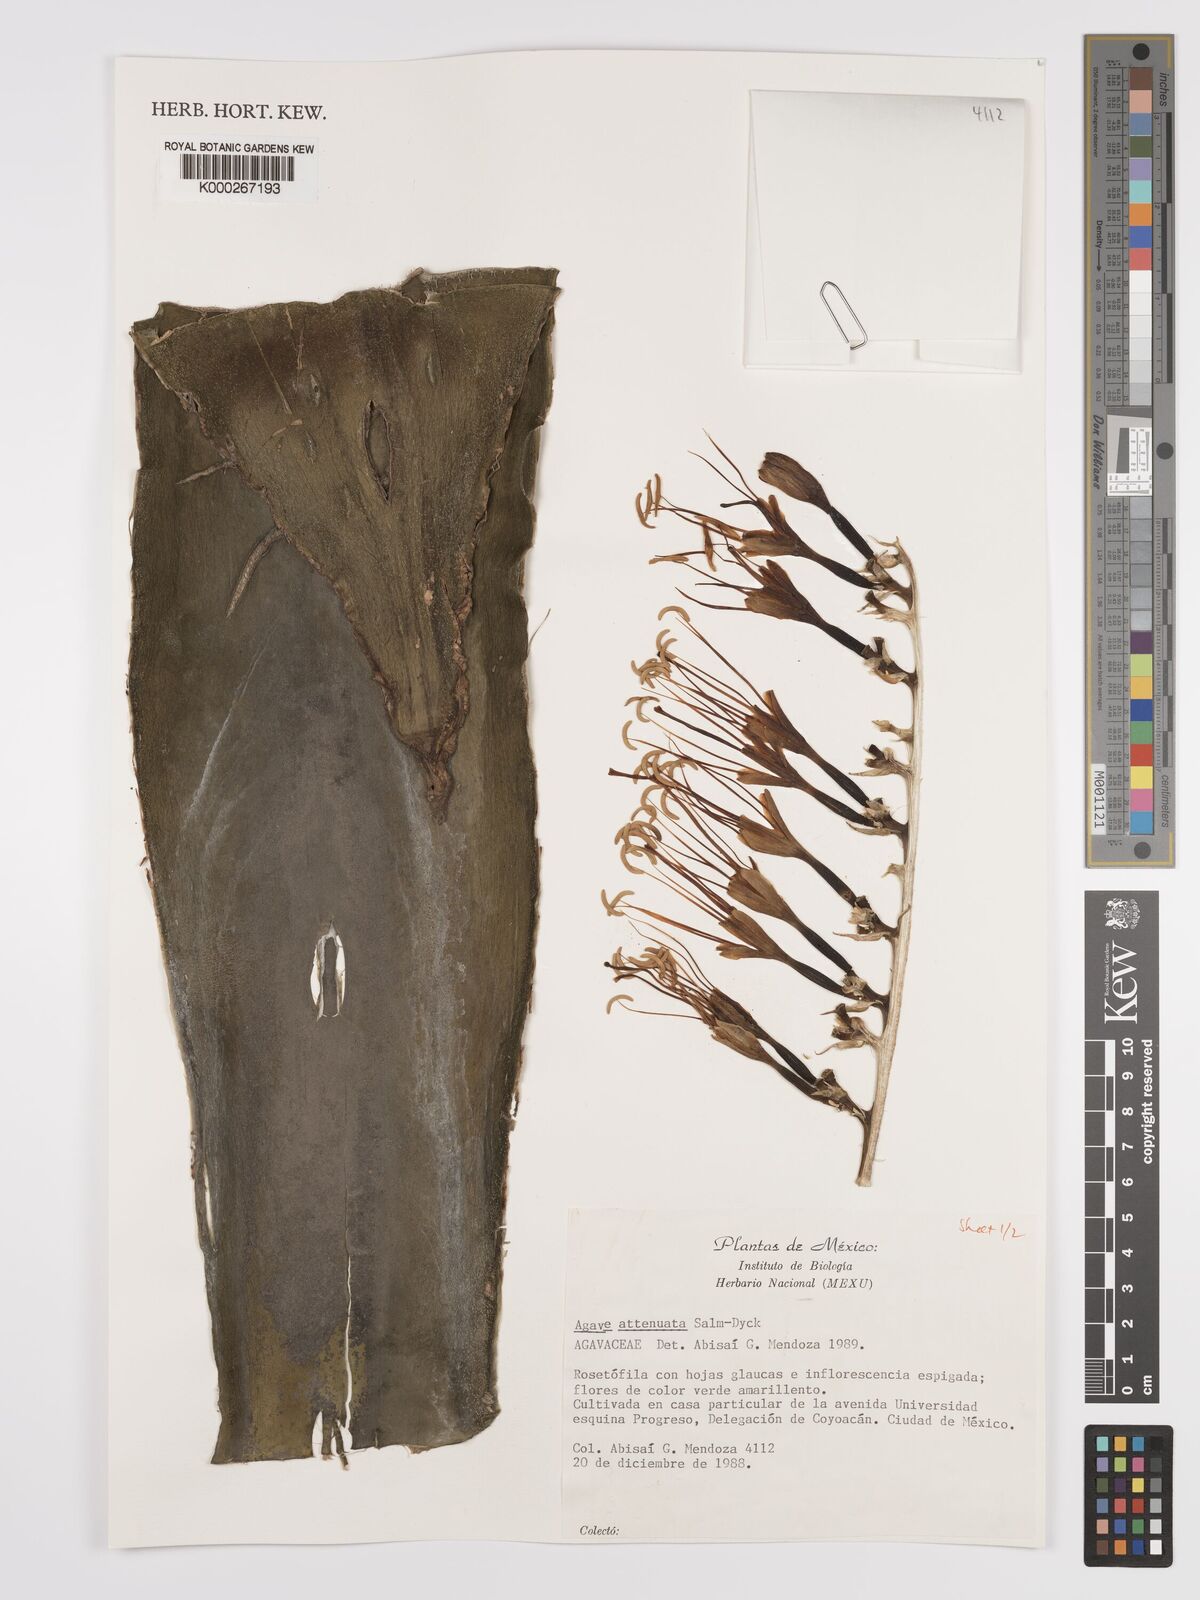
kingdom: Plantae
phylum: Tracheophyta
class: Liliopsida
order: Asparagales
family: Asparagaceae
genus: Agave
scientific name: Agave attenuata
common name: Fox tail agave
